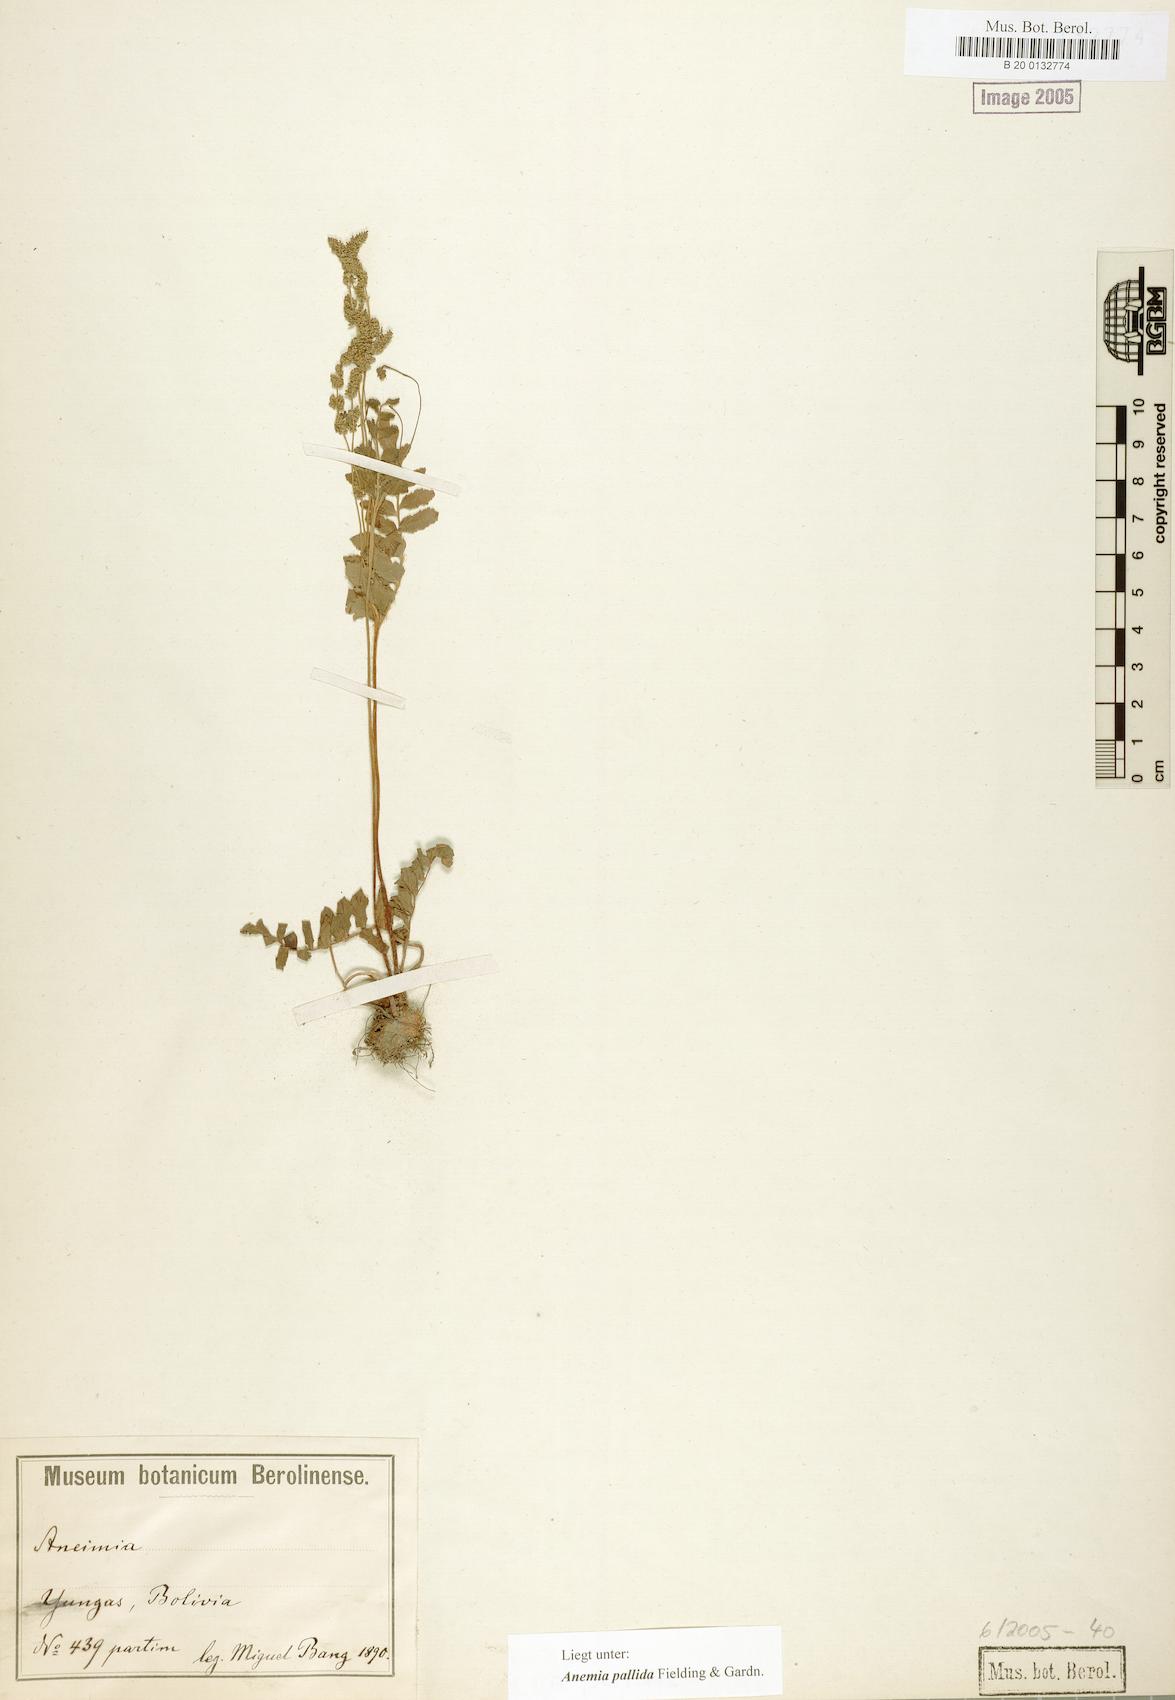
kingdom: Plantae
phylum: Tracheophyta
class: Polypodiopsida
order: Schizaeales
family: Anemiaceae
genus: Anemia
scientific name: Anemia hispida
